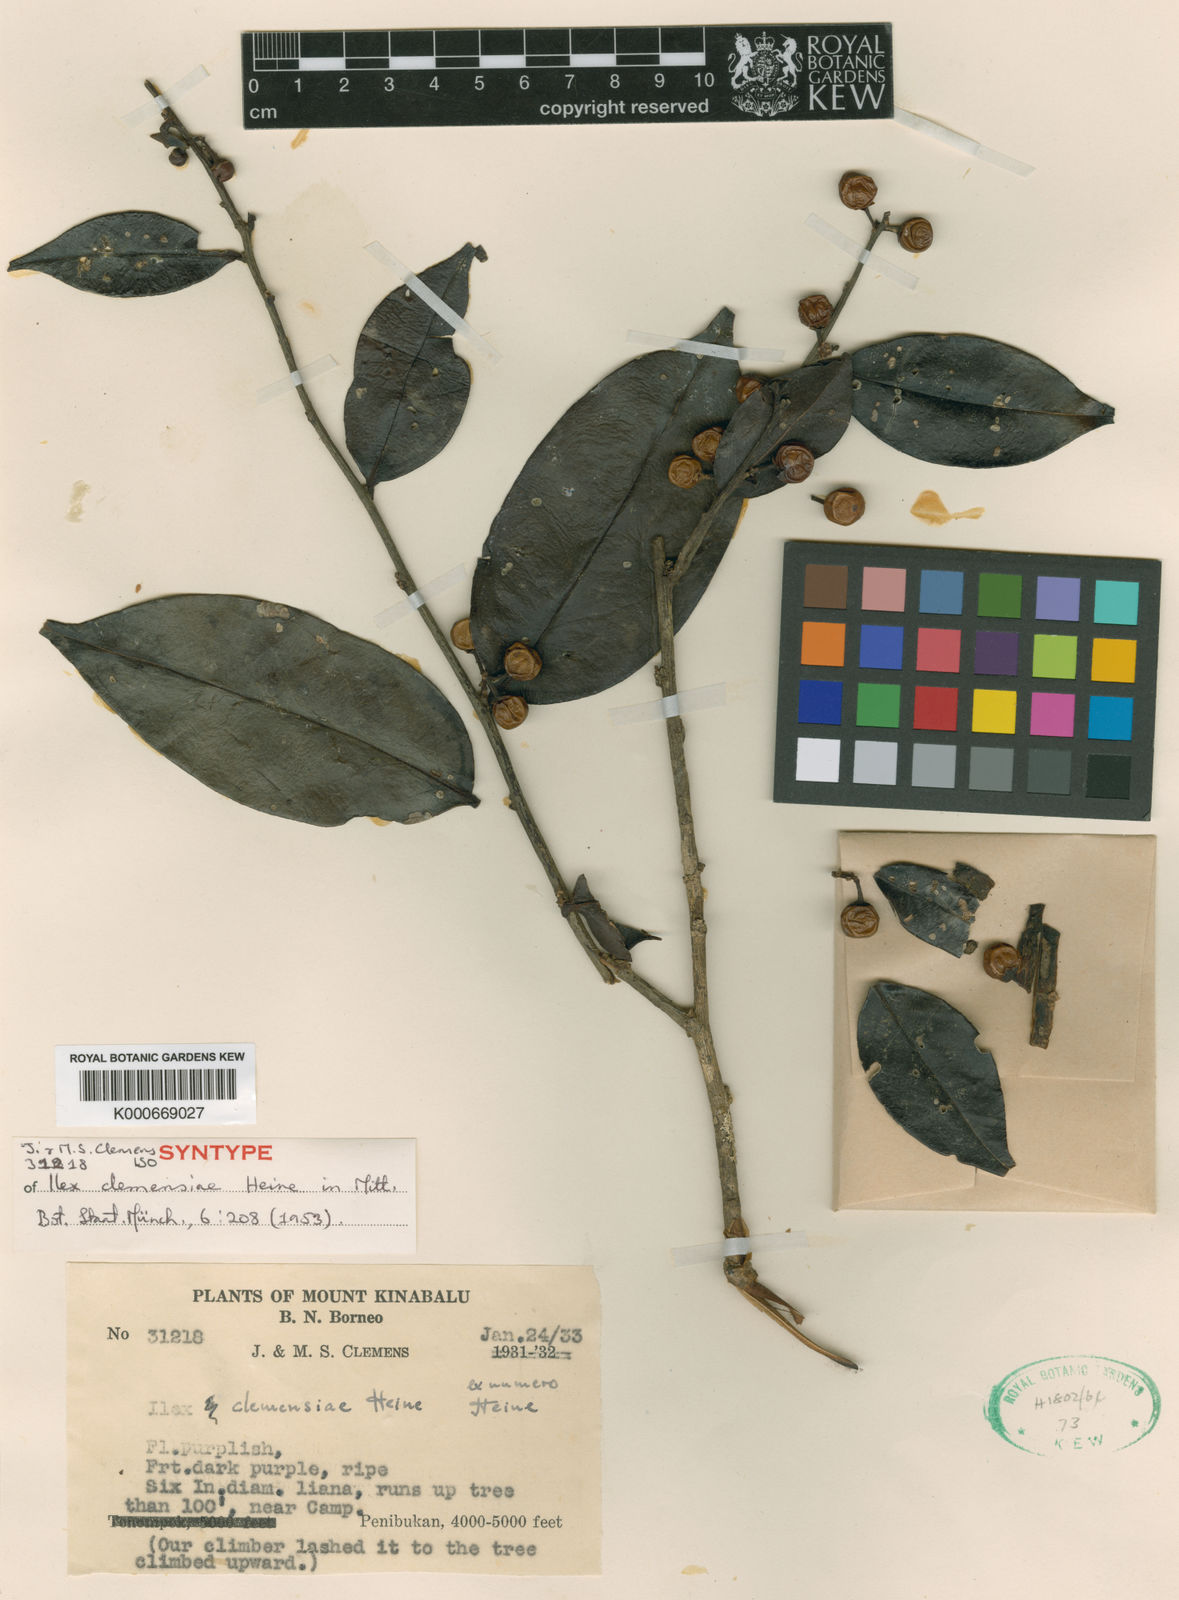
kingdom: Plantae
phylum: Tracheophyta
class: Magnoliopsida
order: Aquifoliales
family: Aquifoliaceae
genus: Ilex
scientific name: Ilex clemensiae
